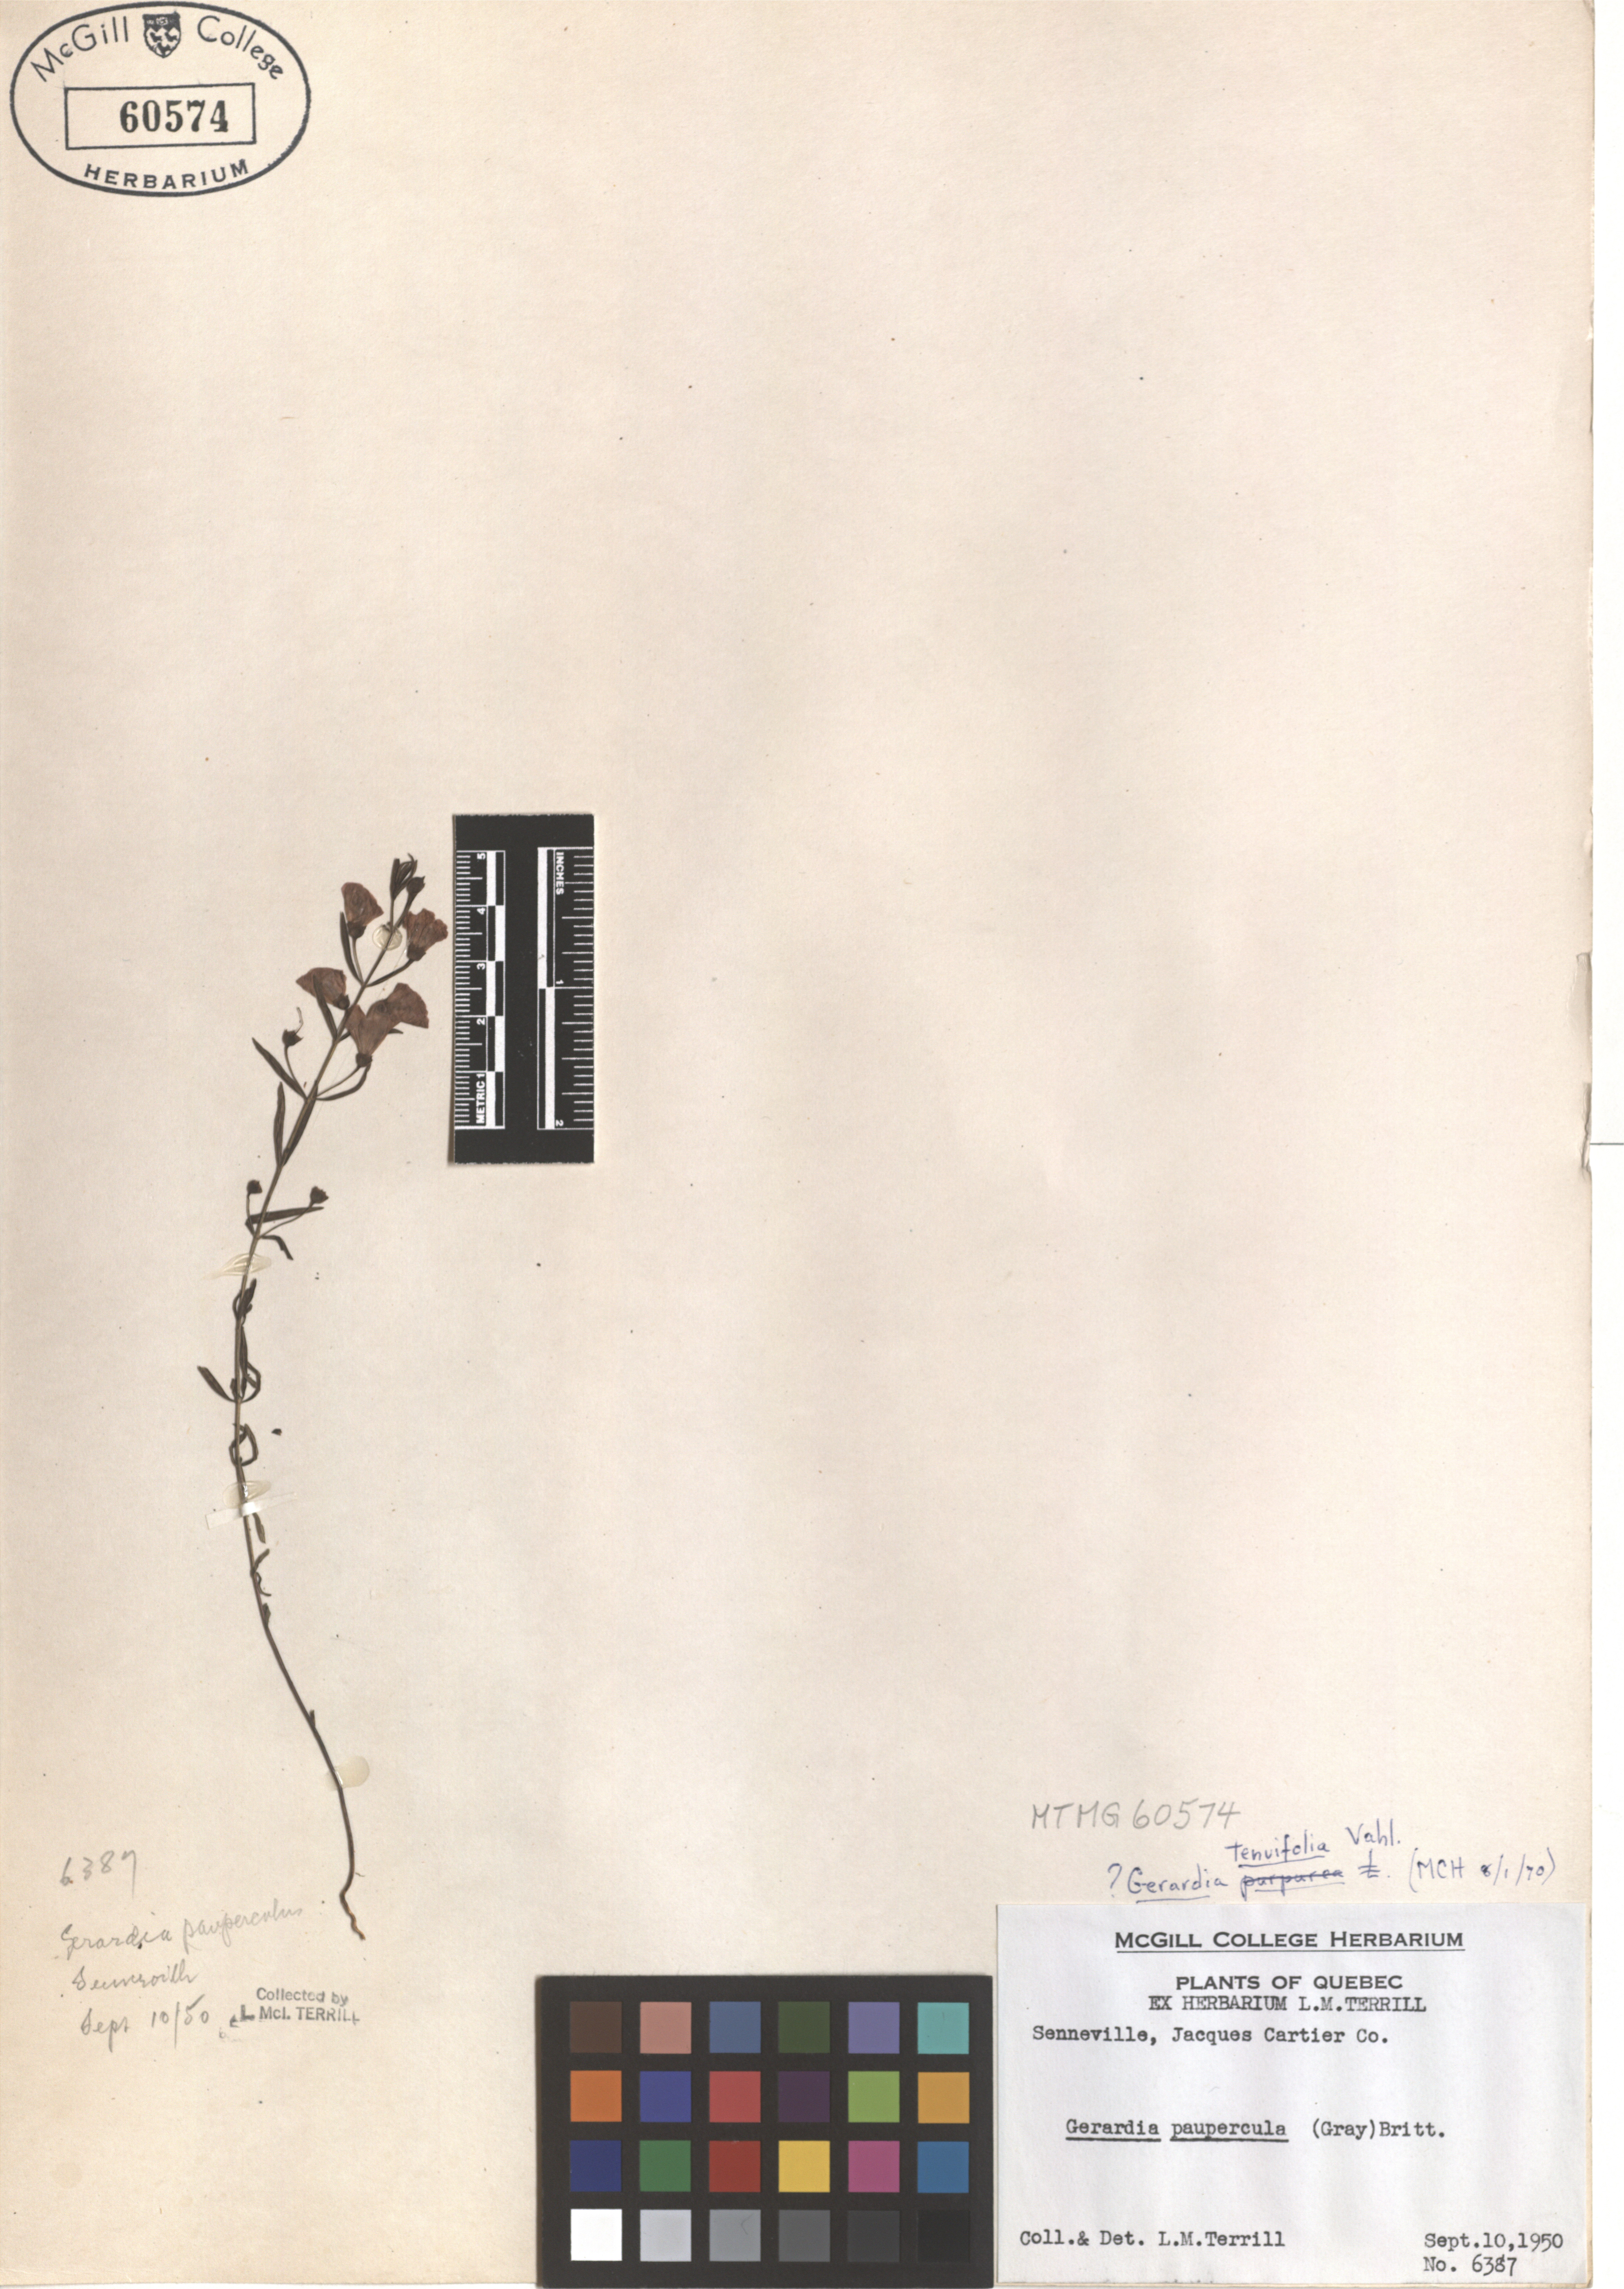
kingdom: Plantae
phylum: Tracheophyta
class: Magnoliopsida
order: Lamiales
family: Orobanchaceae
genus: Agalinis
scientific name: Agalinis tenuifolia
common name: Slender agalinis
